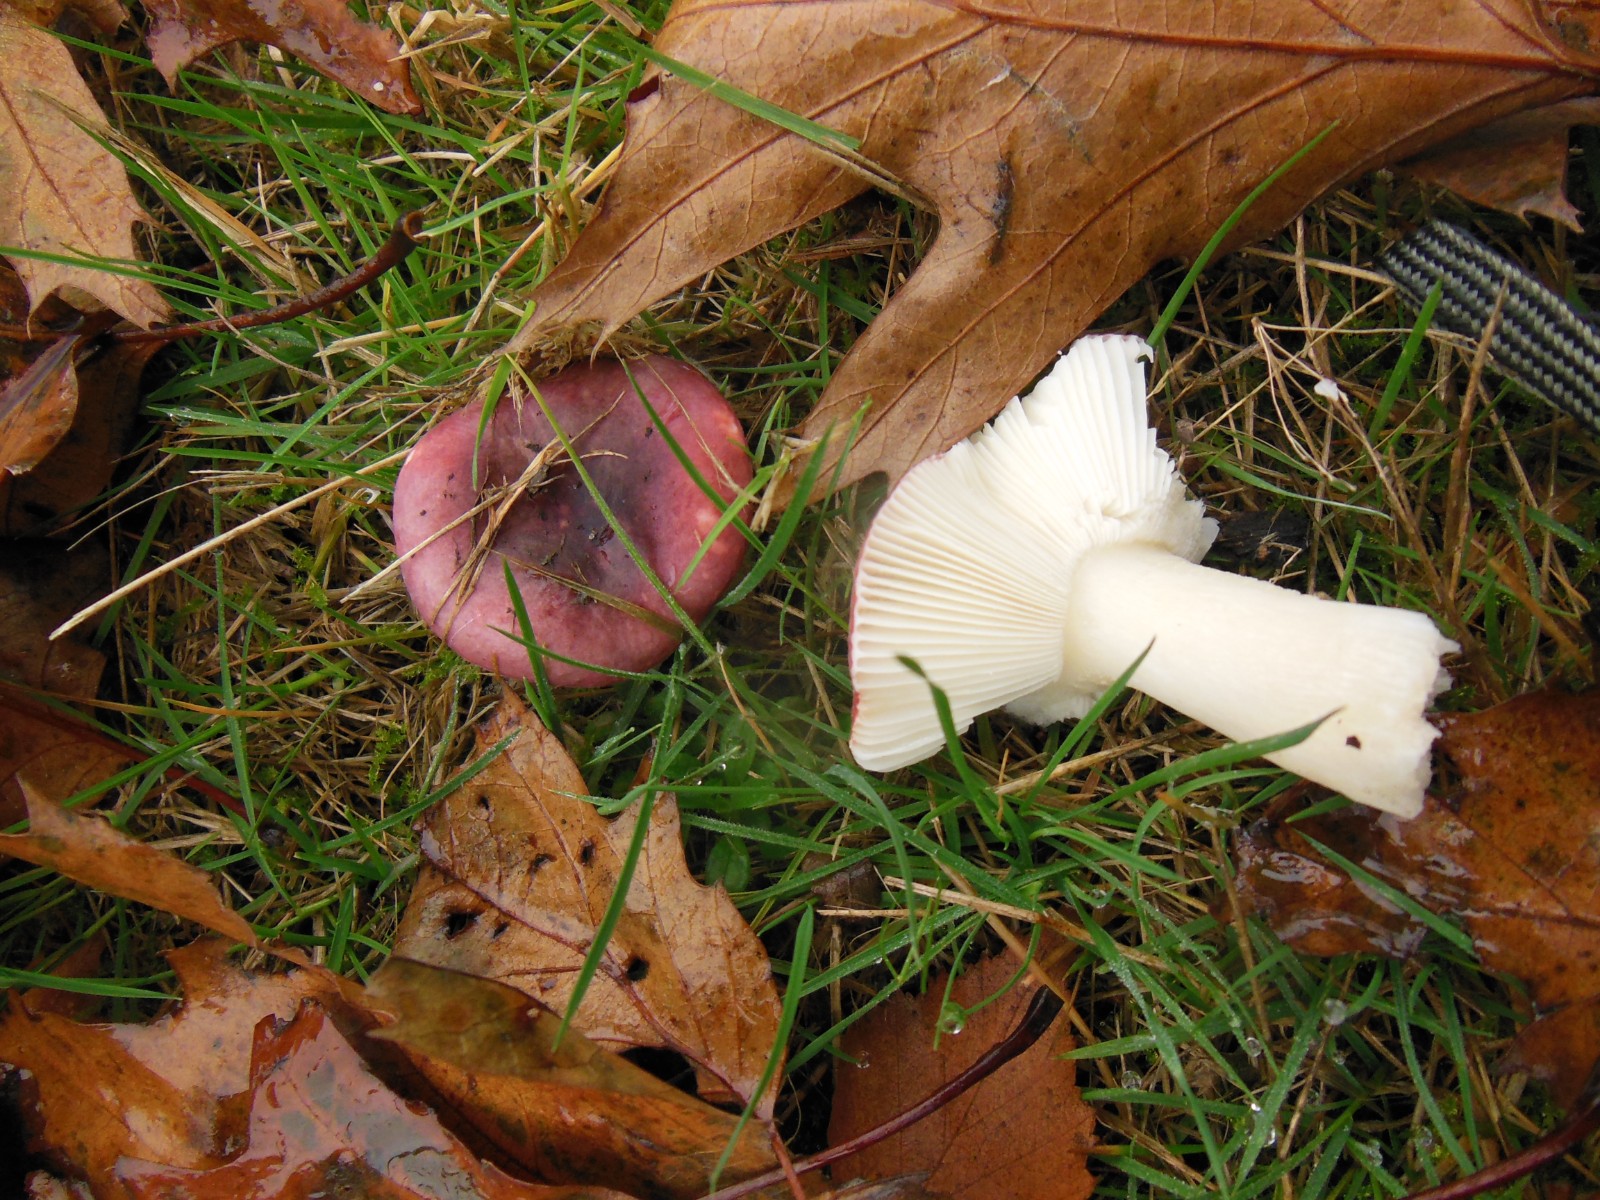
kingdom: Fungi
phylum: Basidiomycota
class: Agaricomycetes
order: Russulales
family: Russulaceae
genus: Russula
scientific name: Russula fragilis
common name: savbladet skørhat
